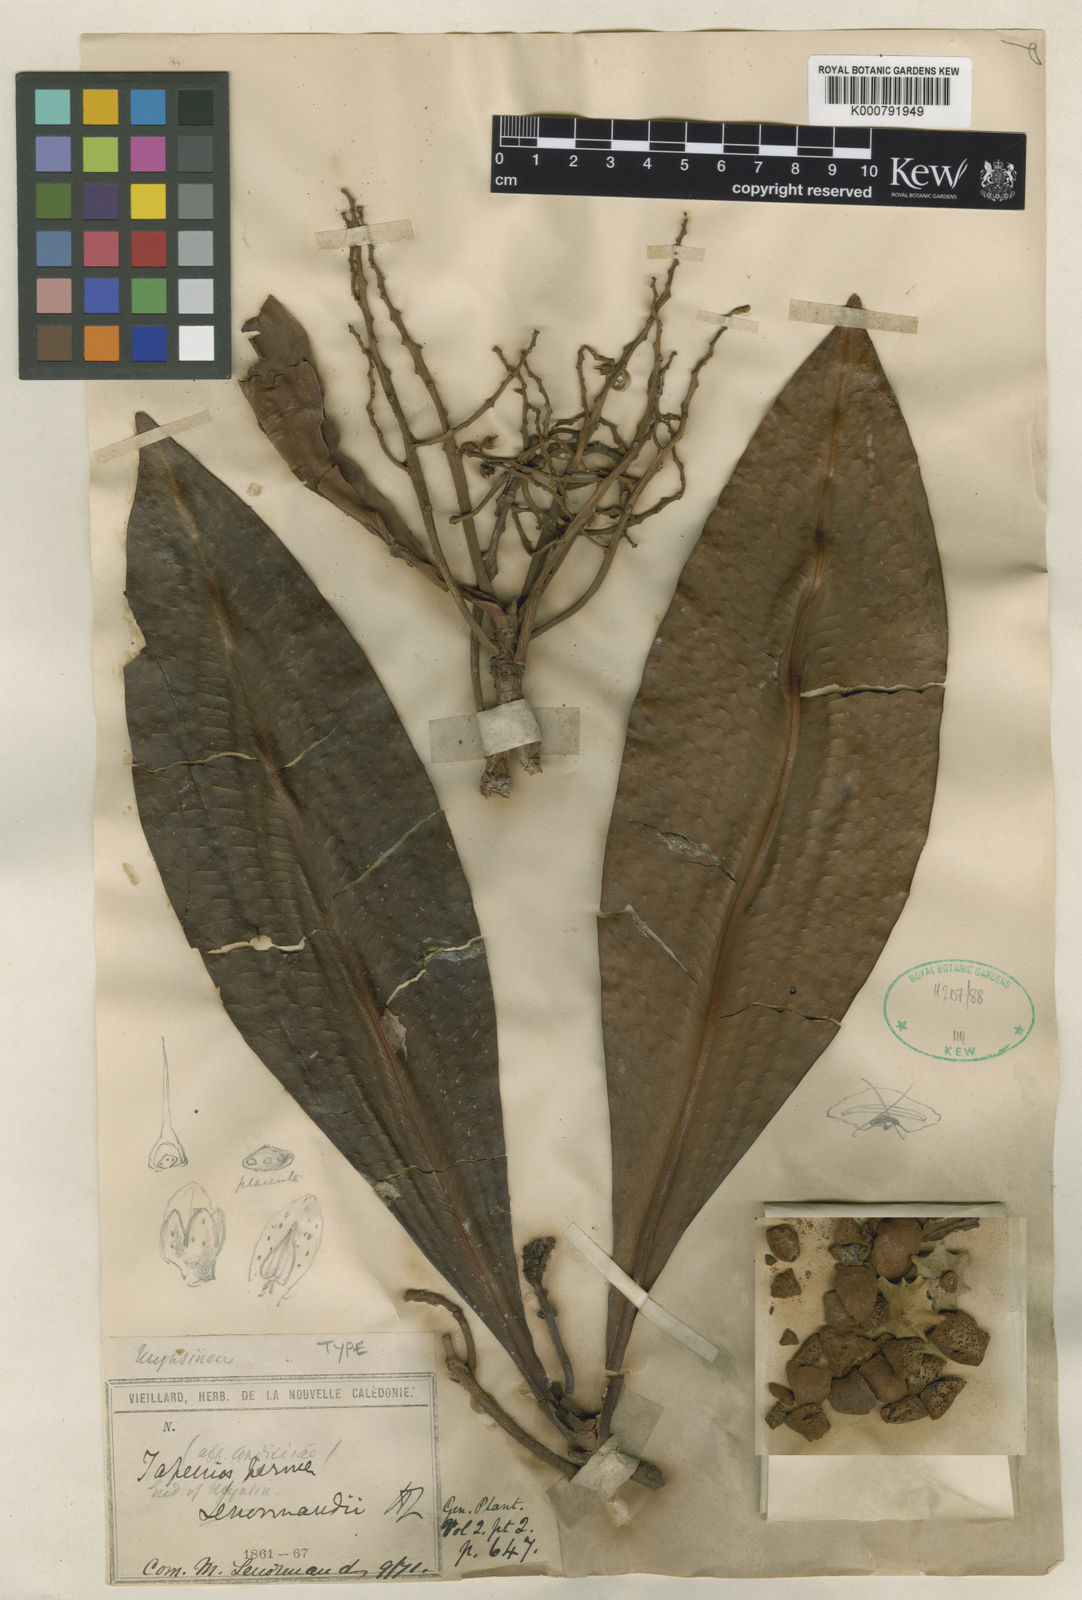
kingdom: Plantae
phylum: Tracheophyta
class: Magnoliopsida
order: Ericales
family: Primulaceae
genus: Tapeinosperma
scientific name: Tapeinosperma lenormandii
